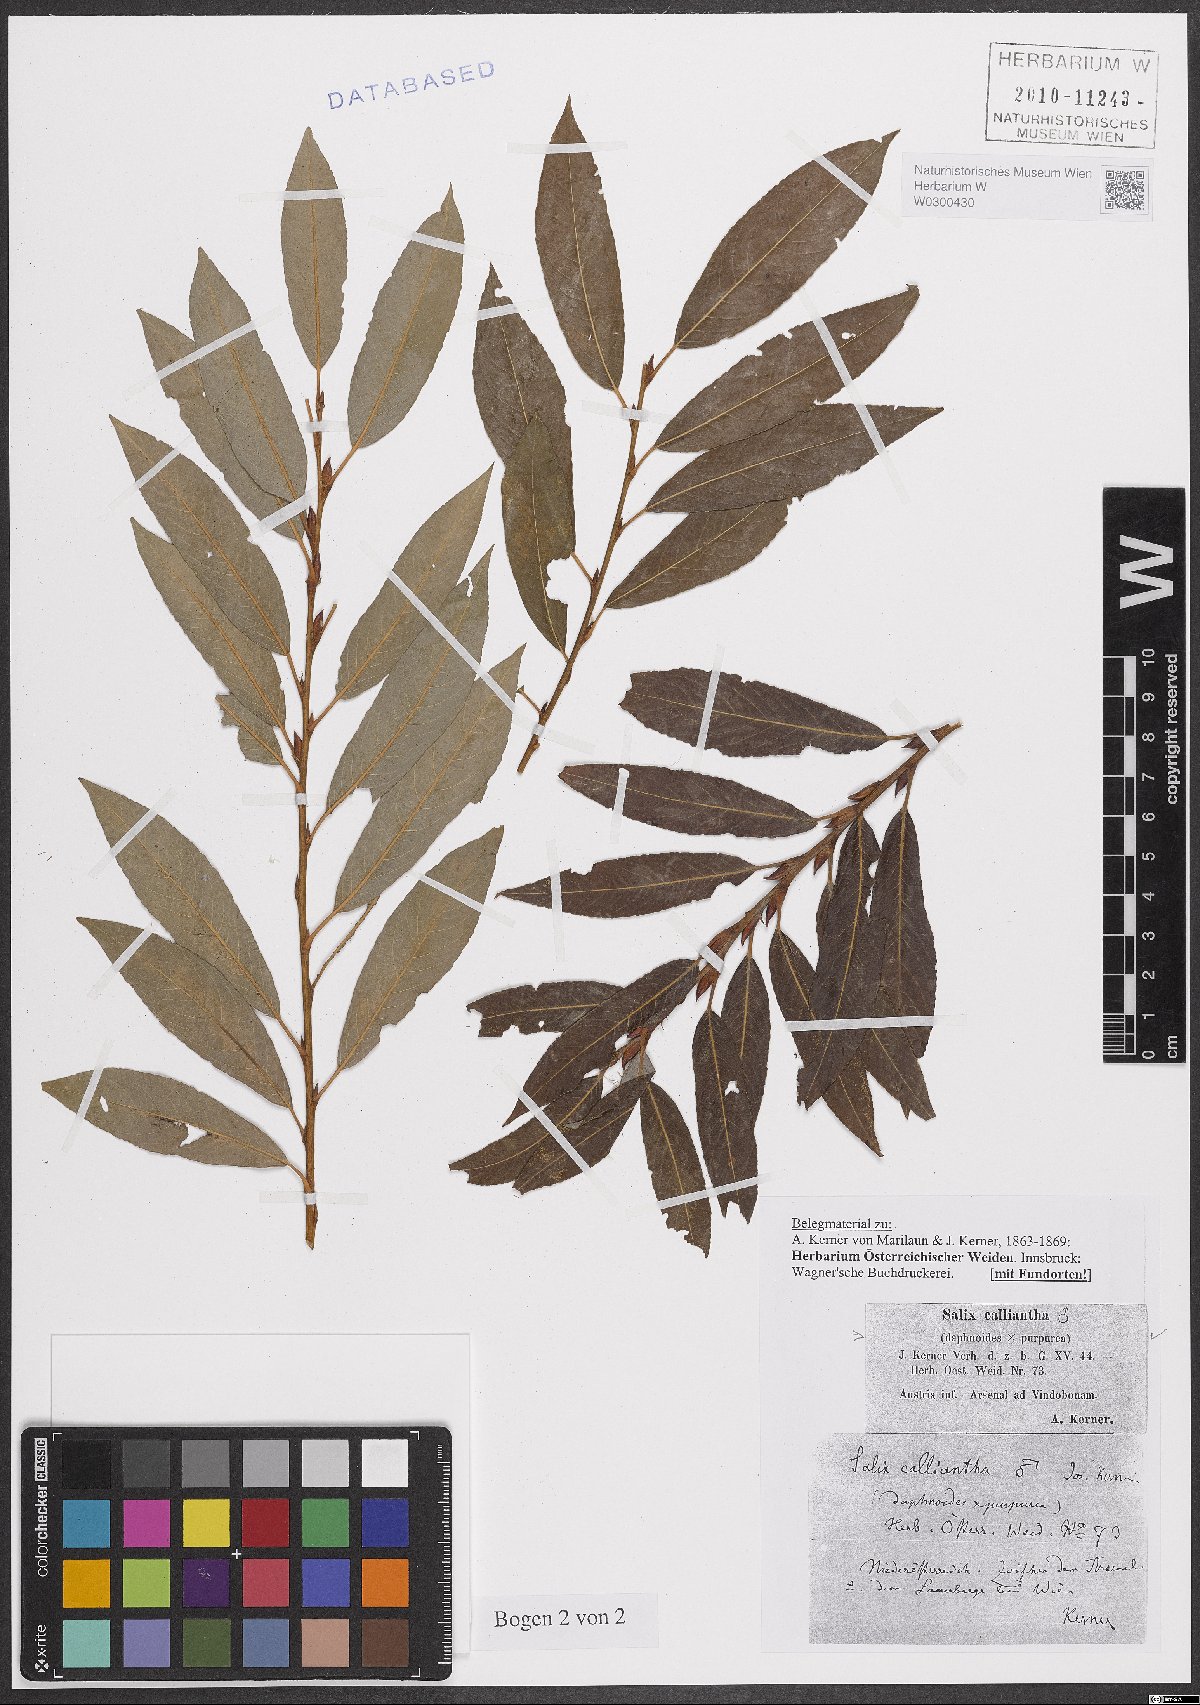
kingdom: Plantae
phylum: Tracheophyta
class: Magnoliopsida
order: Malpighiales
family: Salicaceae
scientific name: Salicaceae
